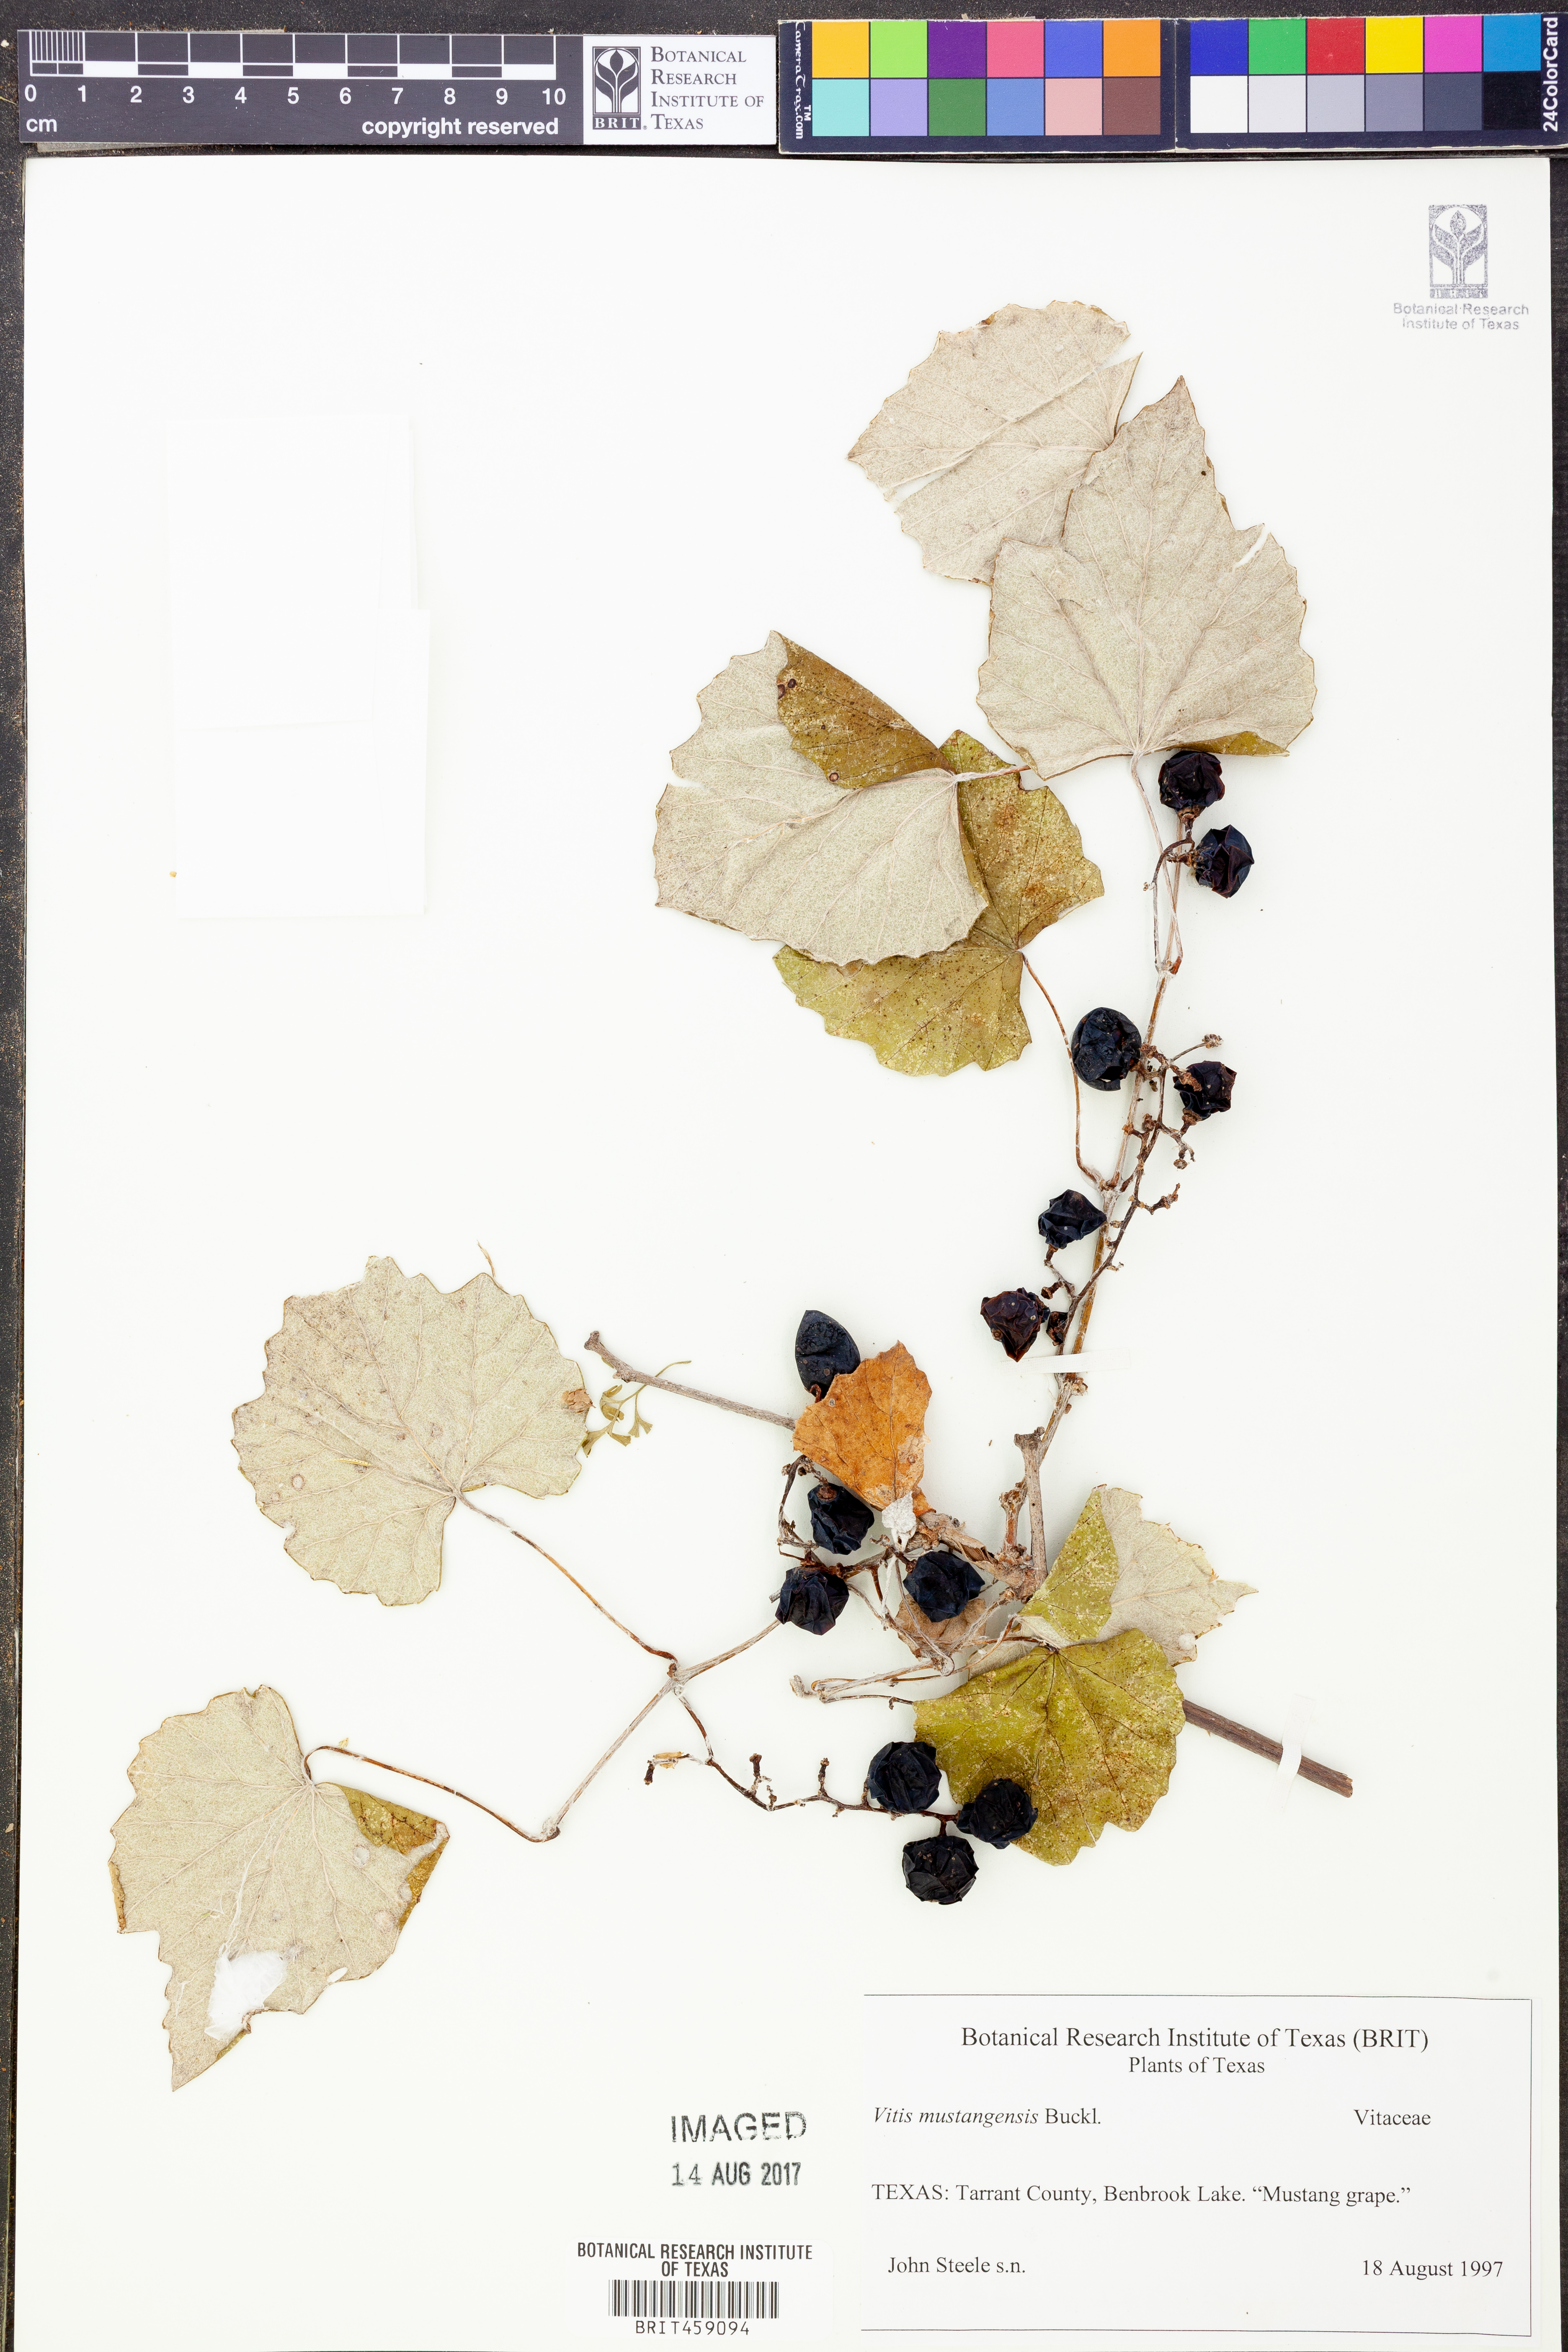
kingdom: Plantae
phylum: Tracheophyta
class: Magnoliopsida
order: Vitales
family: Vitaceae
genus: Vitis
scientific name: Vitis mustangensis
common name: Mustang grape
